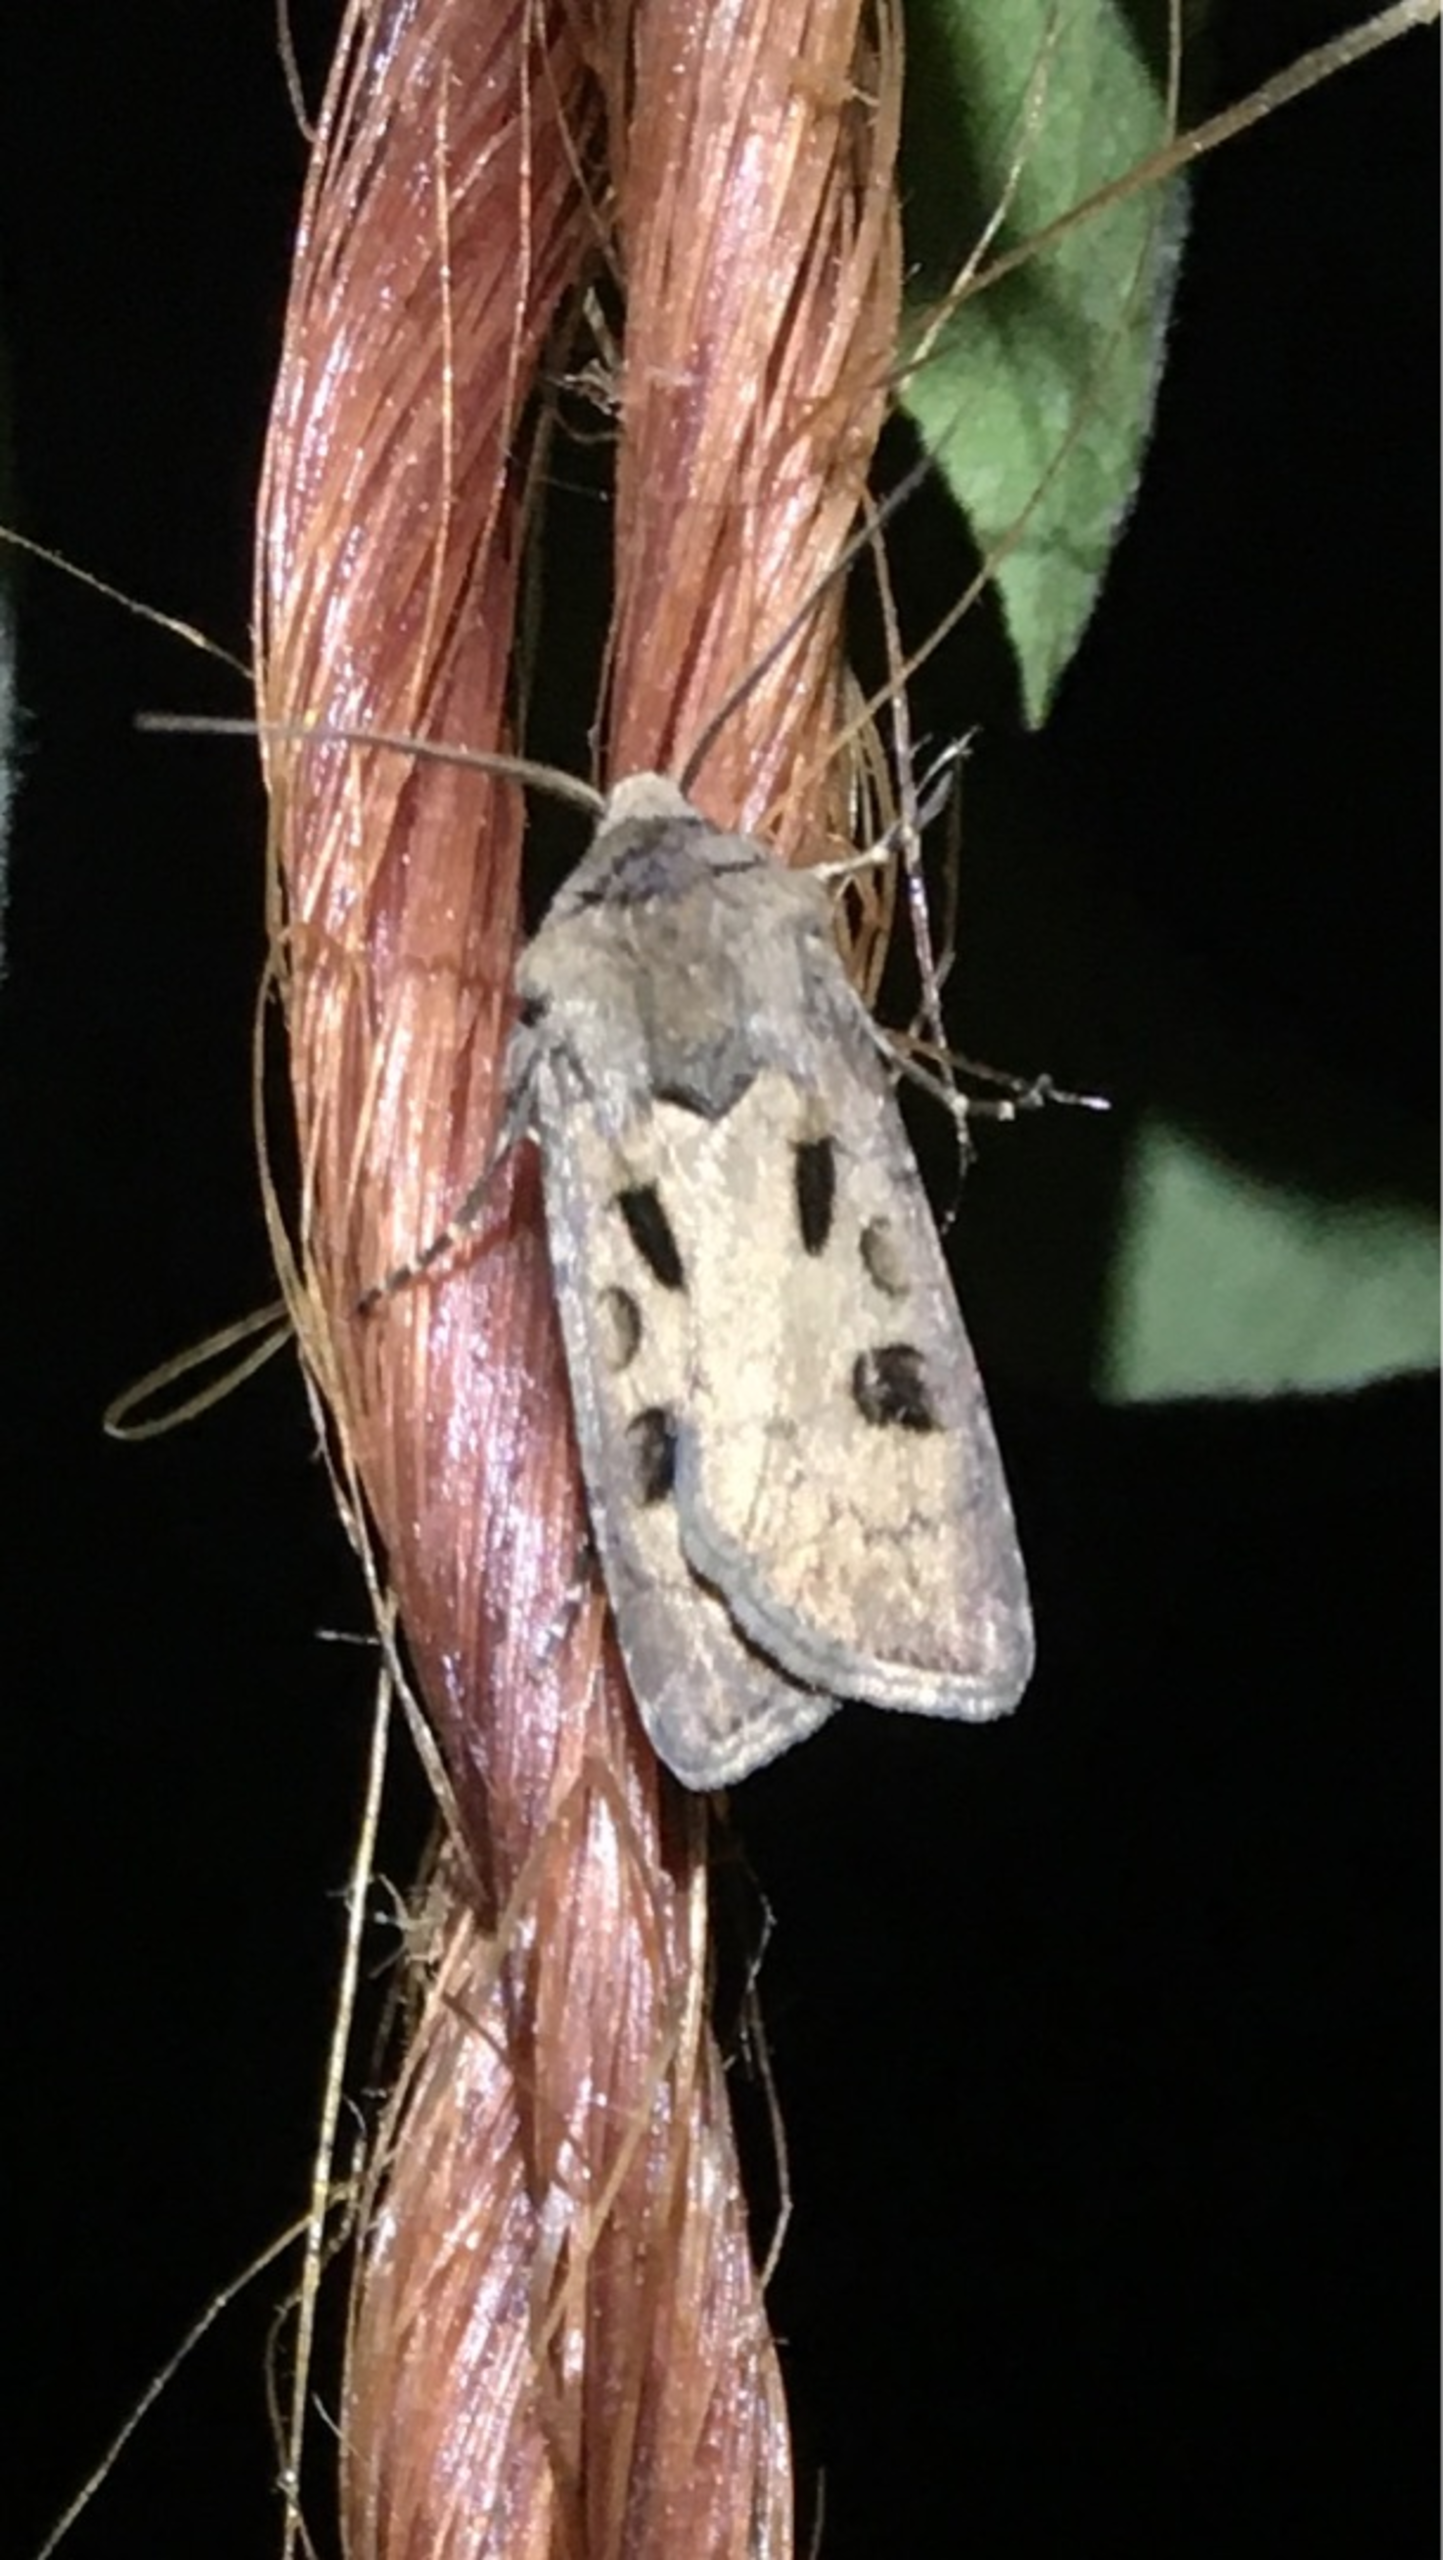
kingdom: Animalia
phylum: Arthropoda
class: Insecta
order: Lepidoptera
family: Noctuidae
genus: Agrotis
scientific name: Agrotis exclamationis
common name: Udråbstegnsugle
